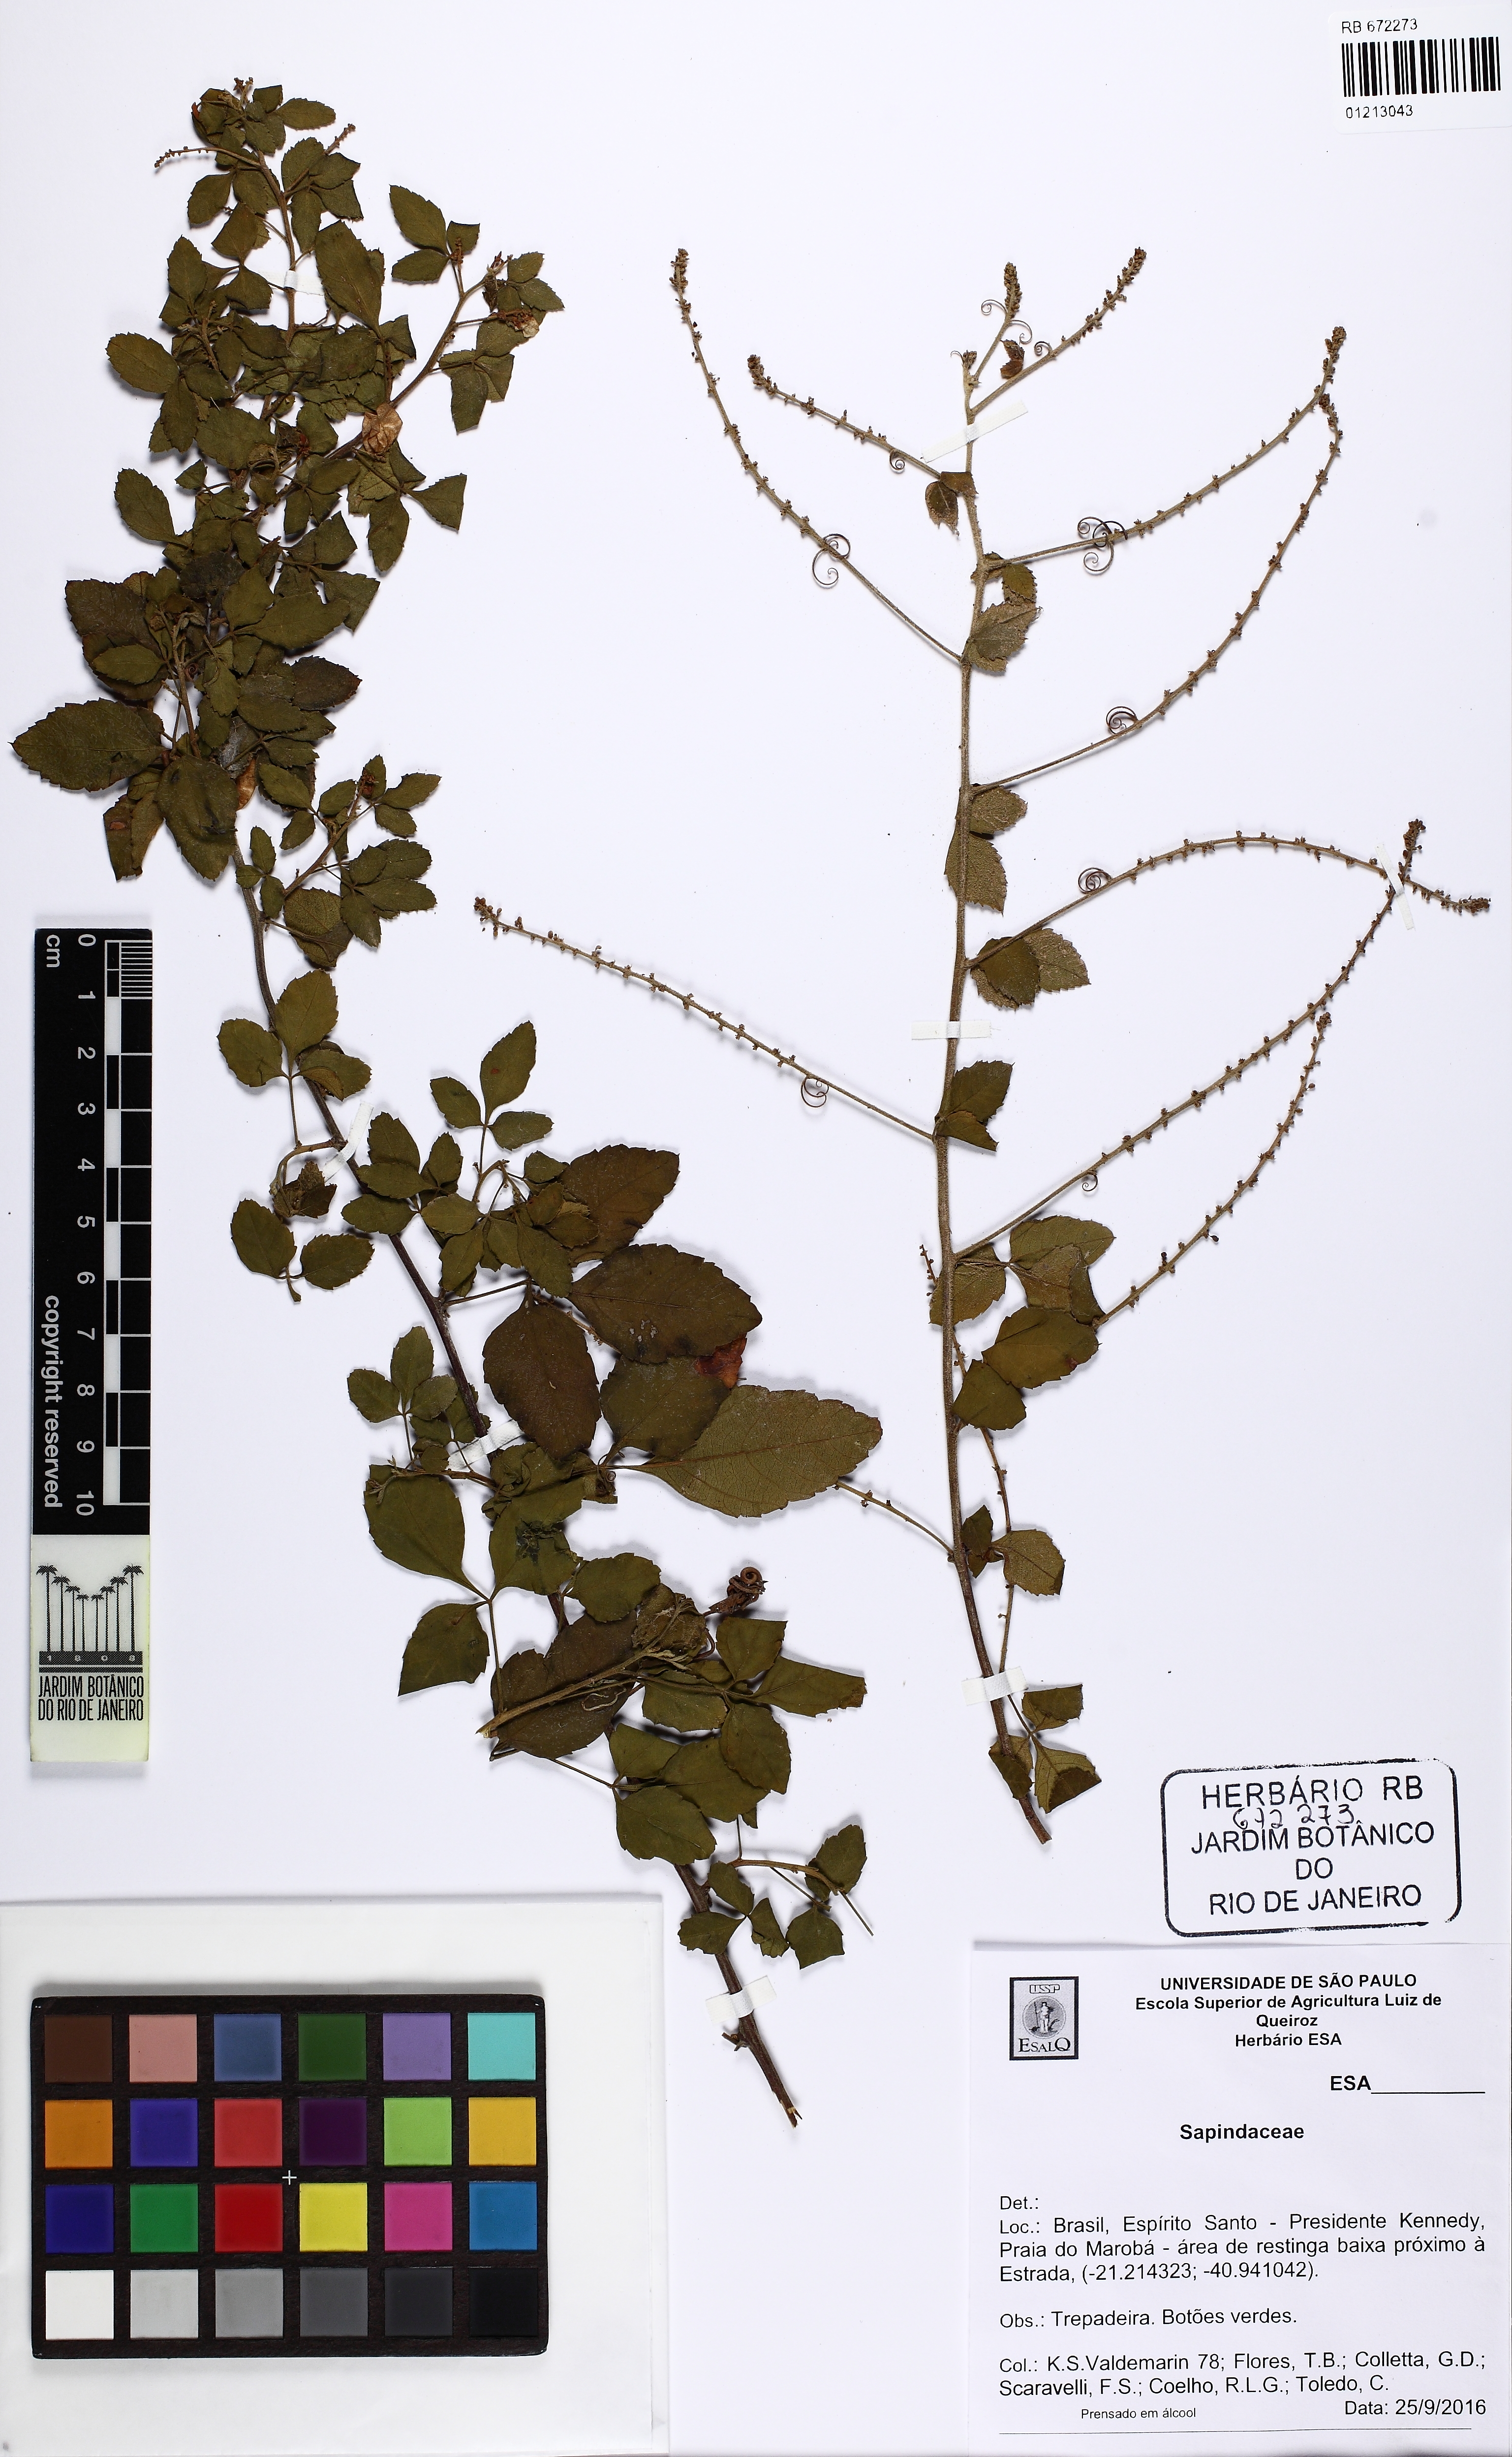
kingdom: Plantae
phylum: Tracheophyta
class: Magnoliopsida
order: Sapindales
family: Sapindaceae
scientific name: Sapindaceae
